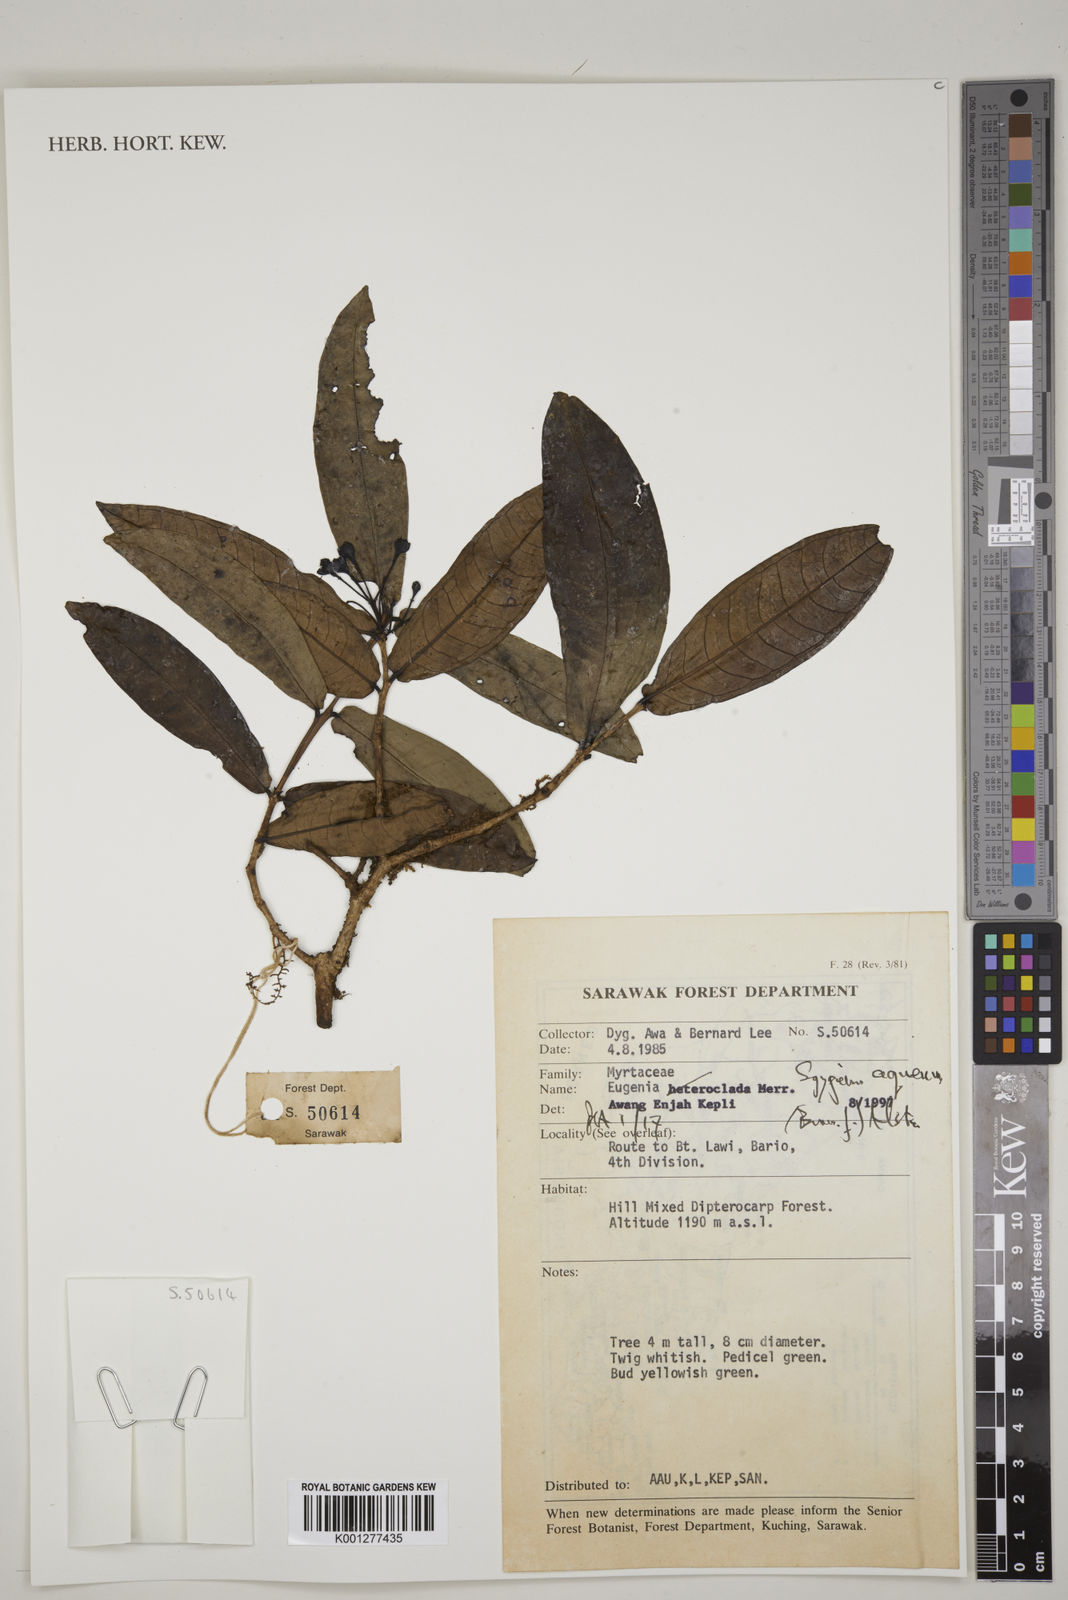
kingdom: Plantae
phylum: Tracheophyta
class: Magnoliopsida
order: Myrtales
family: Myrtaceae
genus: Syzygium
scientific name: Syzygium aqueum
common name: Water-apple
